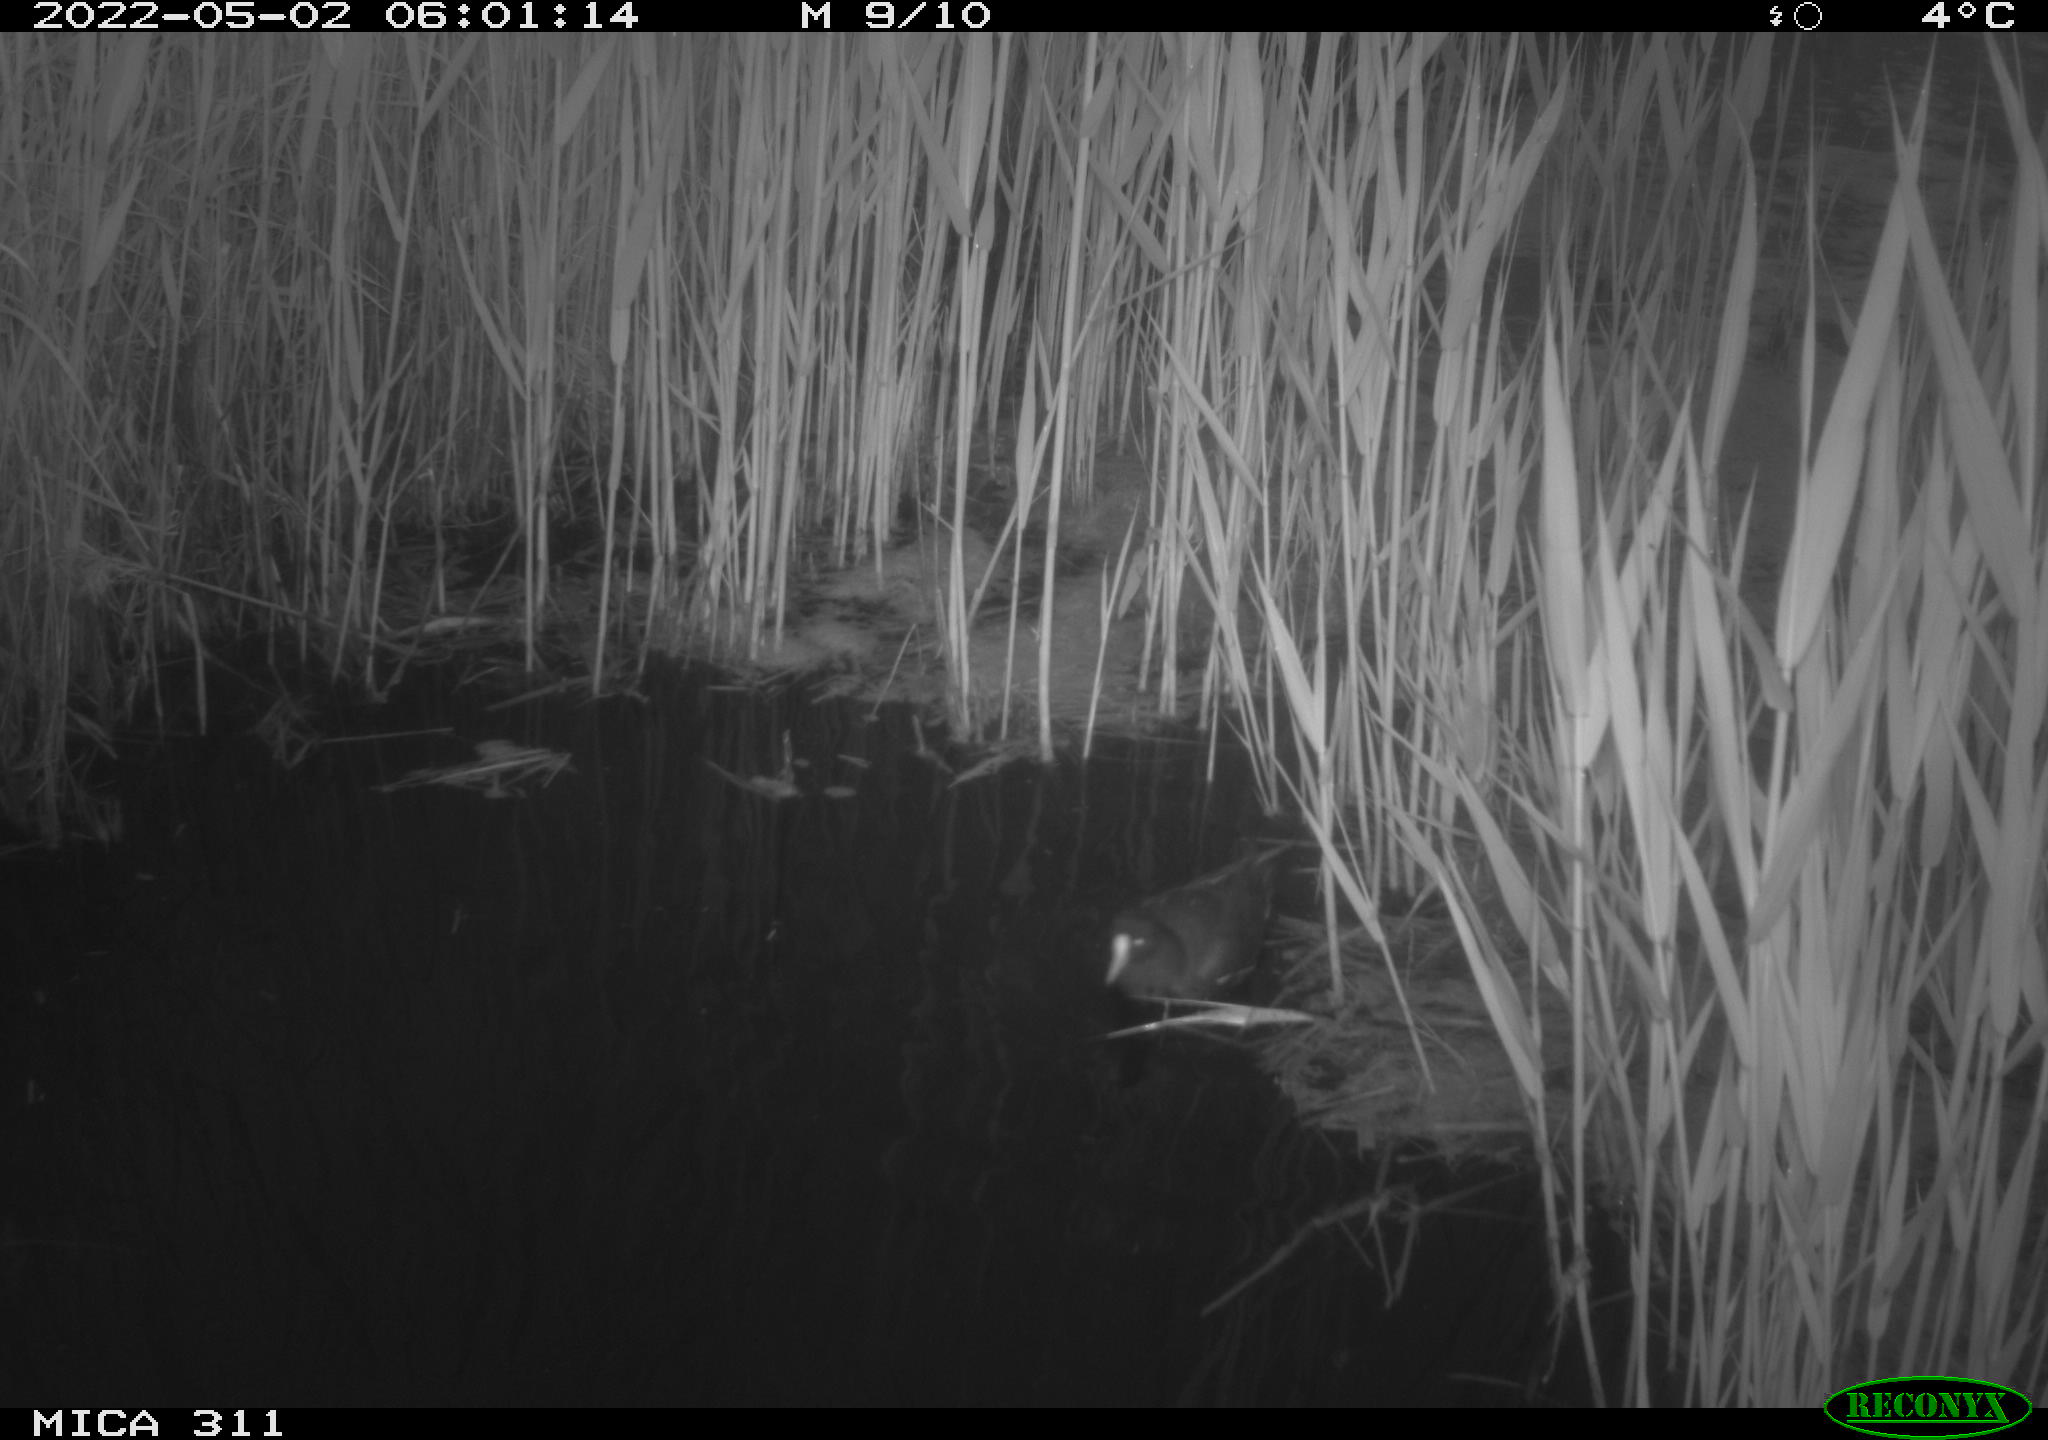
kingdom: Animalia
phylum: Chordata
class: Aves
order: Gruiformes
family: Rallidae
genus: Gallinula
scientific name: Gallinula chloropus
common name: Common moorhen
